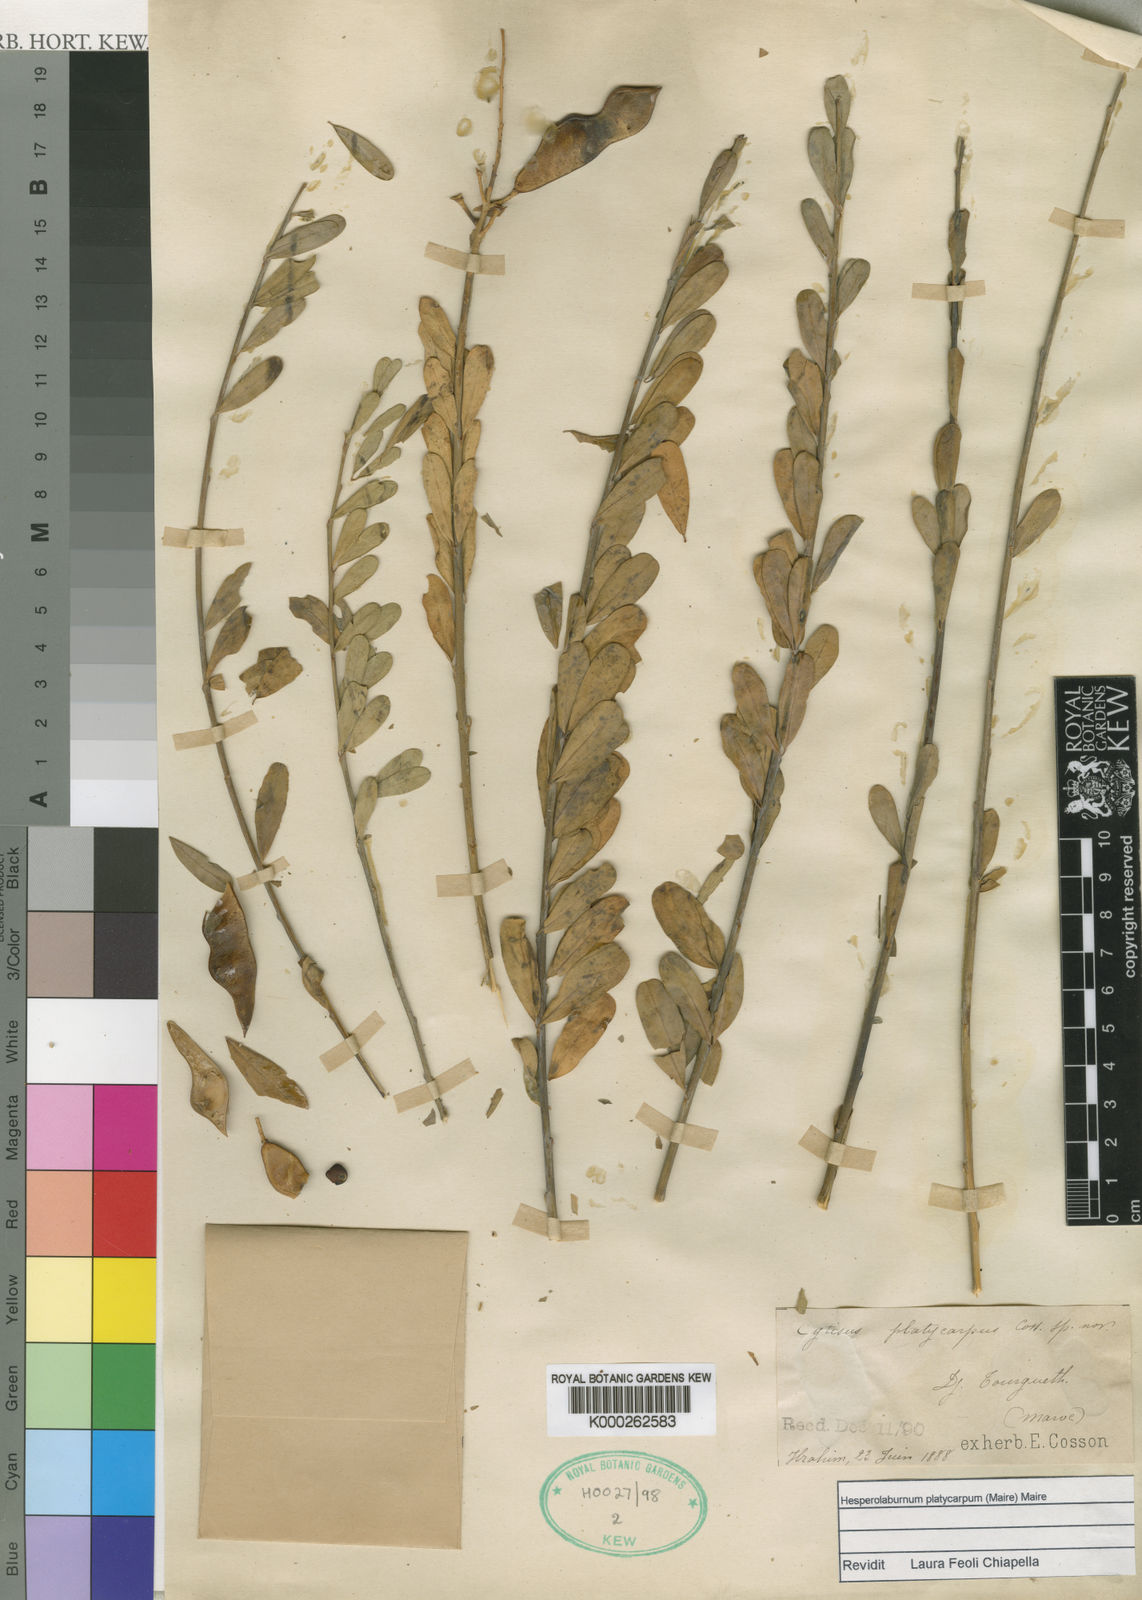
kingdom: Plantae
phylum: Tracheophyta
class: Magnoliopsida
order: Fabales
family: Fabaceae
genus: Hesperolaburnum
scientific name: Hesperolaburnum platycarpum
